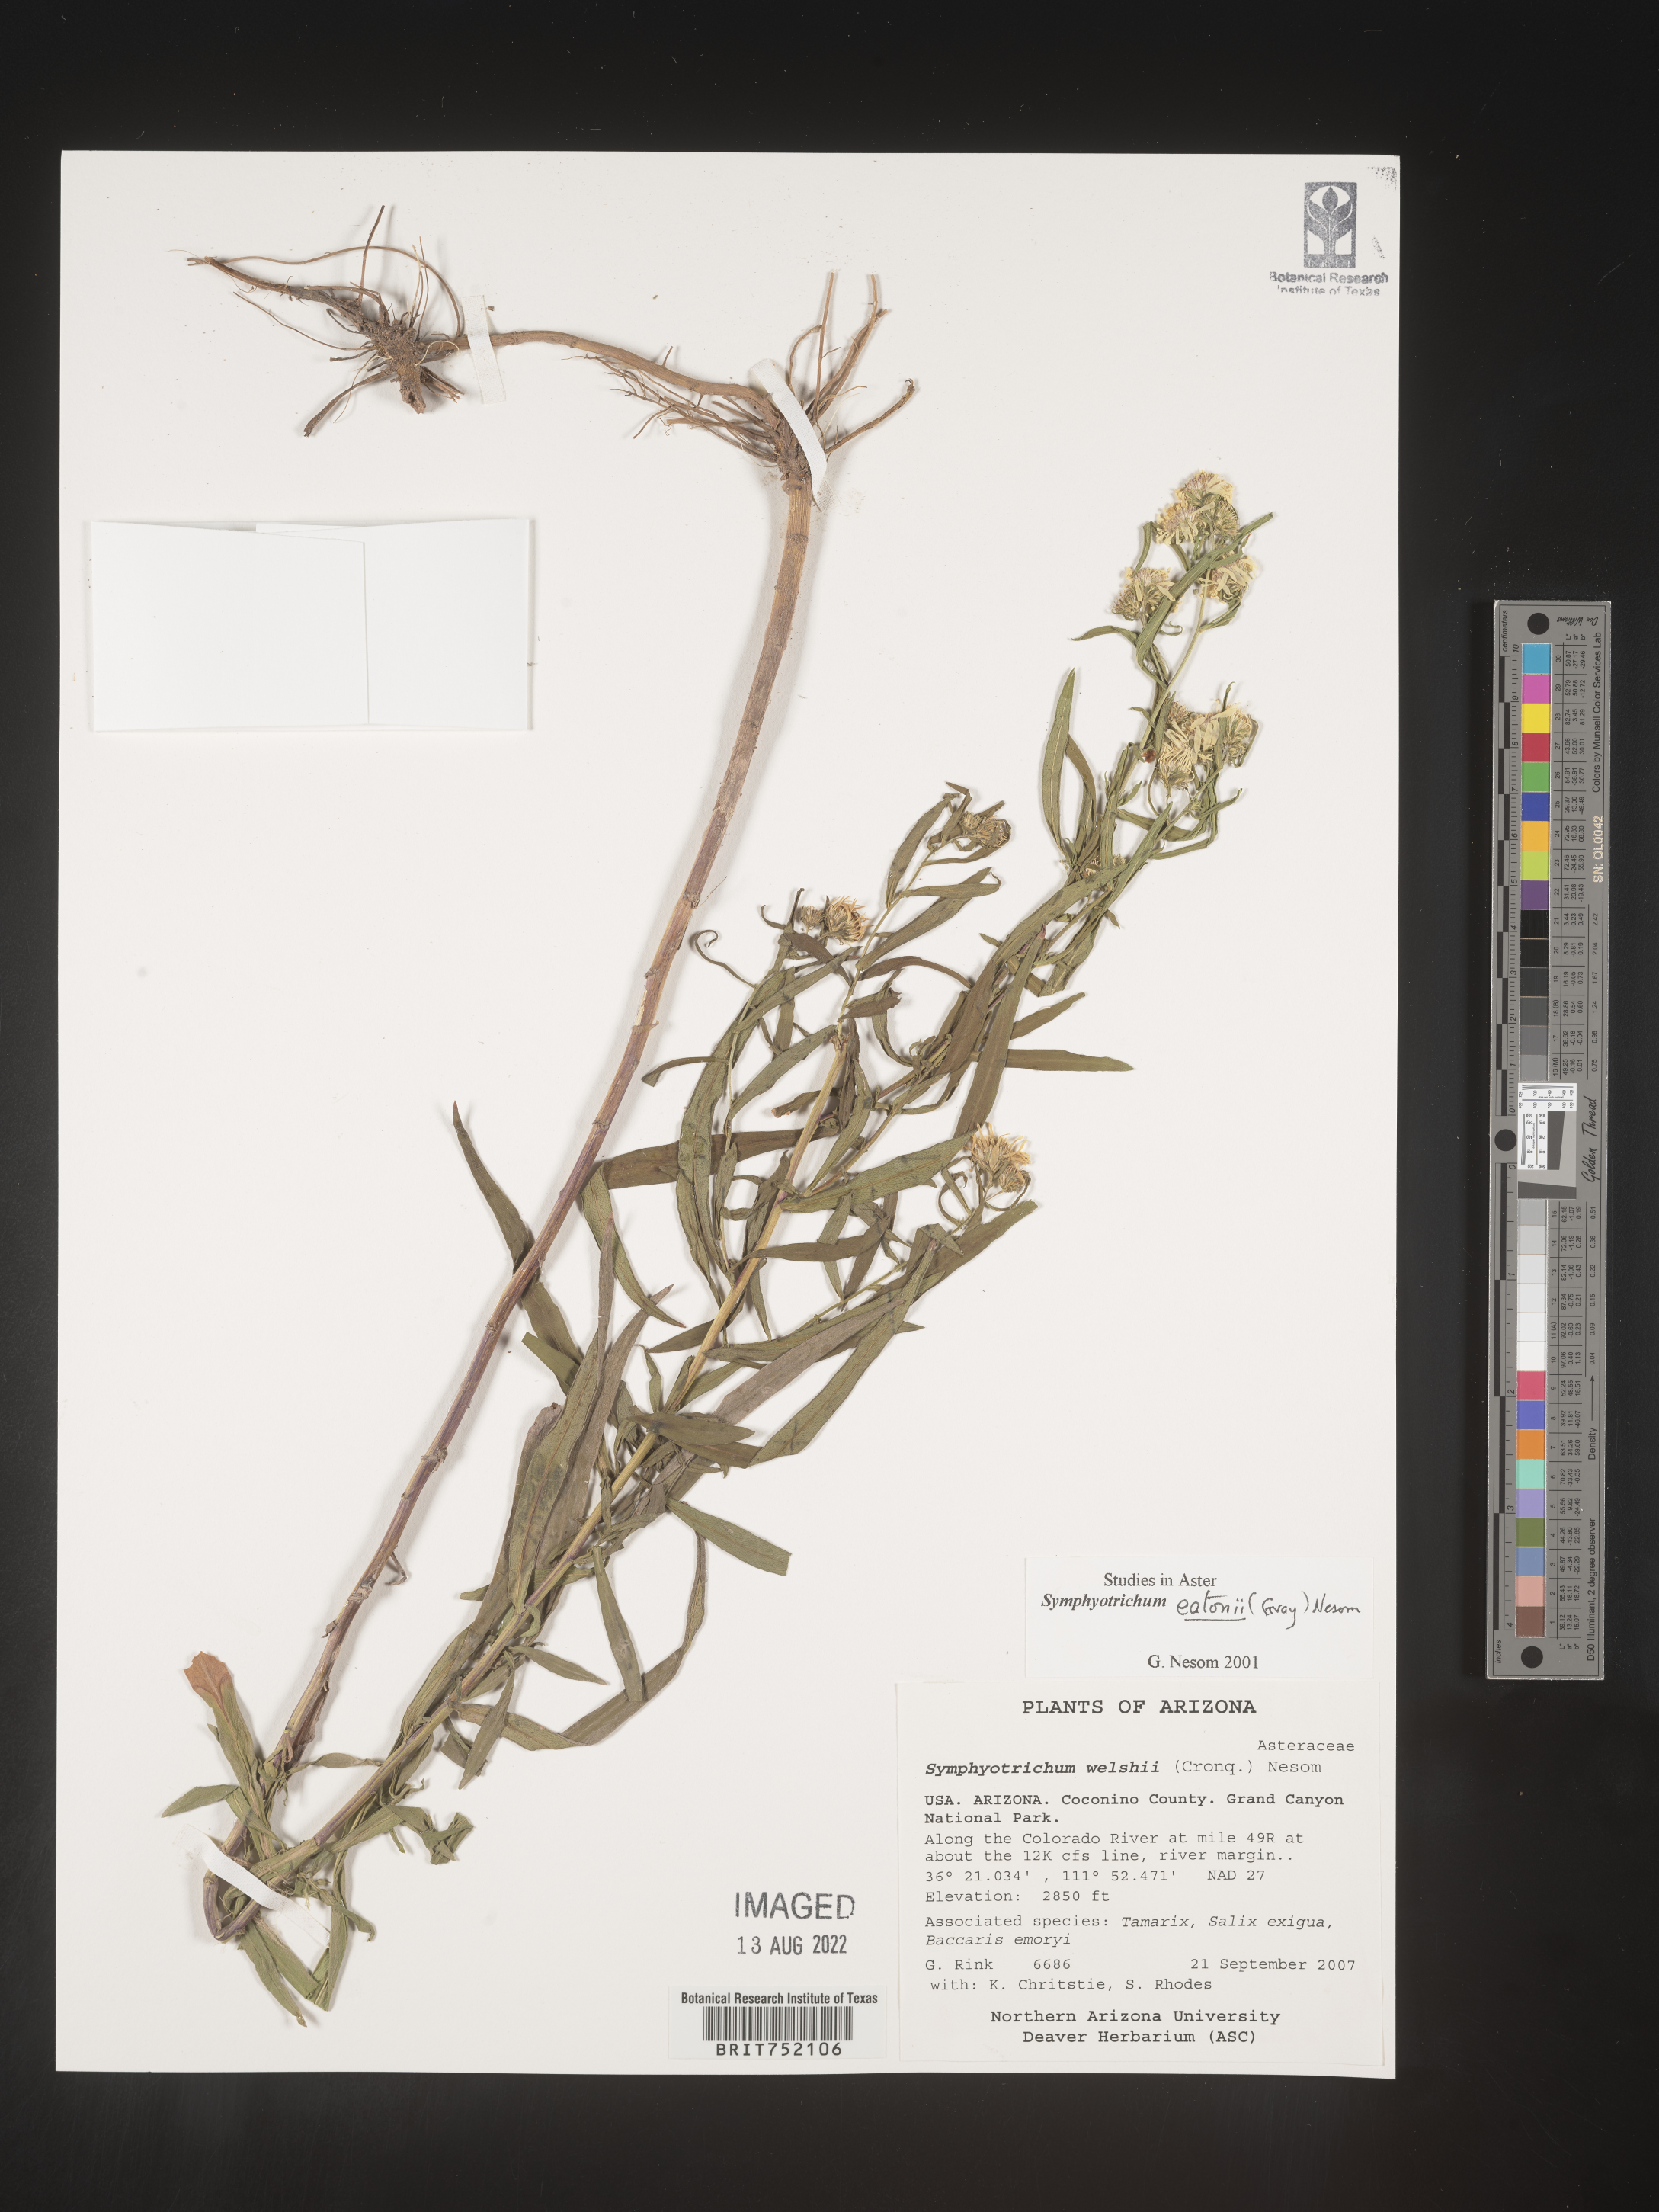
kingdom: Plantae
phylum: Tracheophyta
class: Magnoliopsida
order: Asterales
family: Asteraceae
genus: Symphyotrichum
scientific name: Symphyotrichum bracteolatum
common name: Eaton's aster
